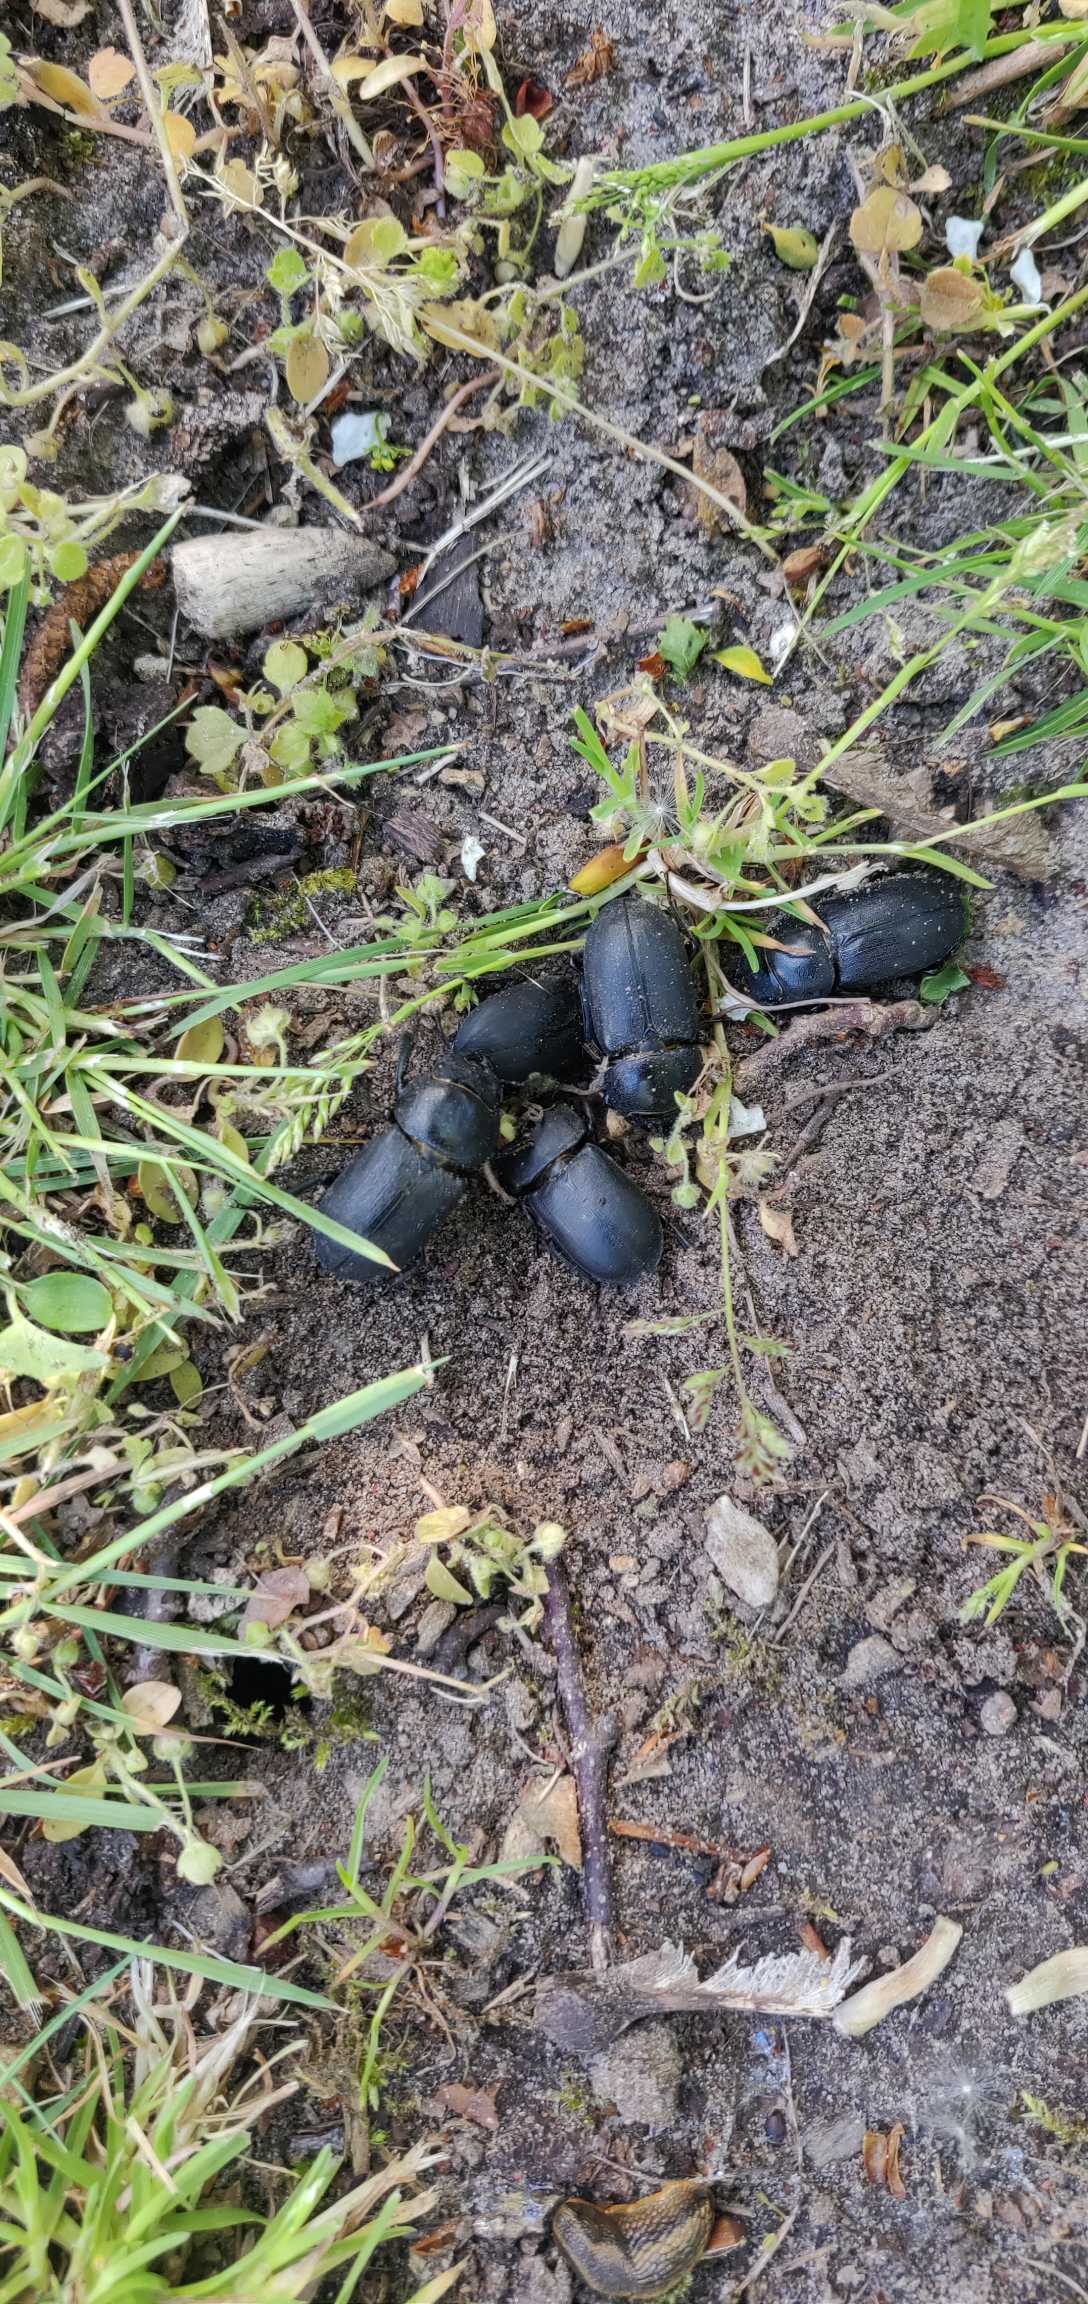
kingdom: Animalia
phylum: Arthropoda
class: Insecta
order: Coleoptera
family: Lucanidae
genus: Dorcus
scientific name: Dorcus parallelipipedus
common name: Bøghjort
